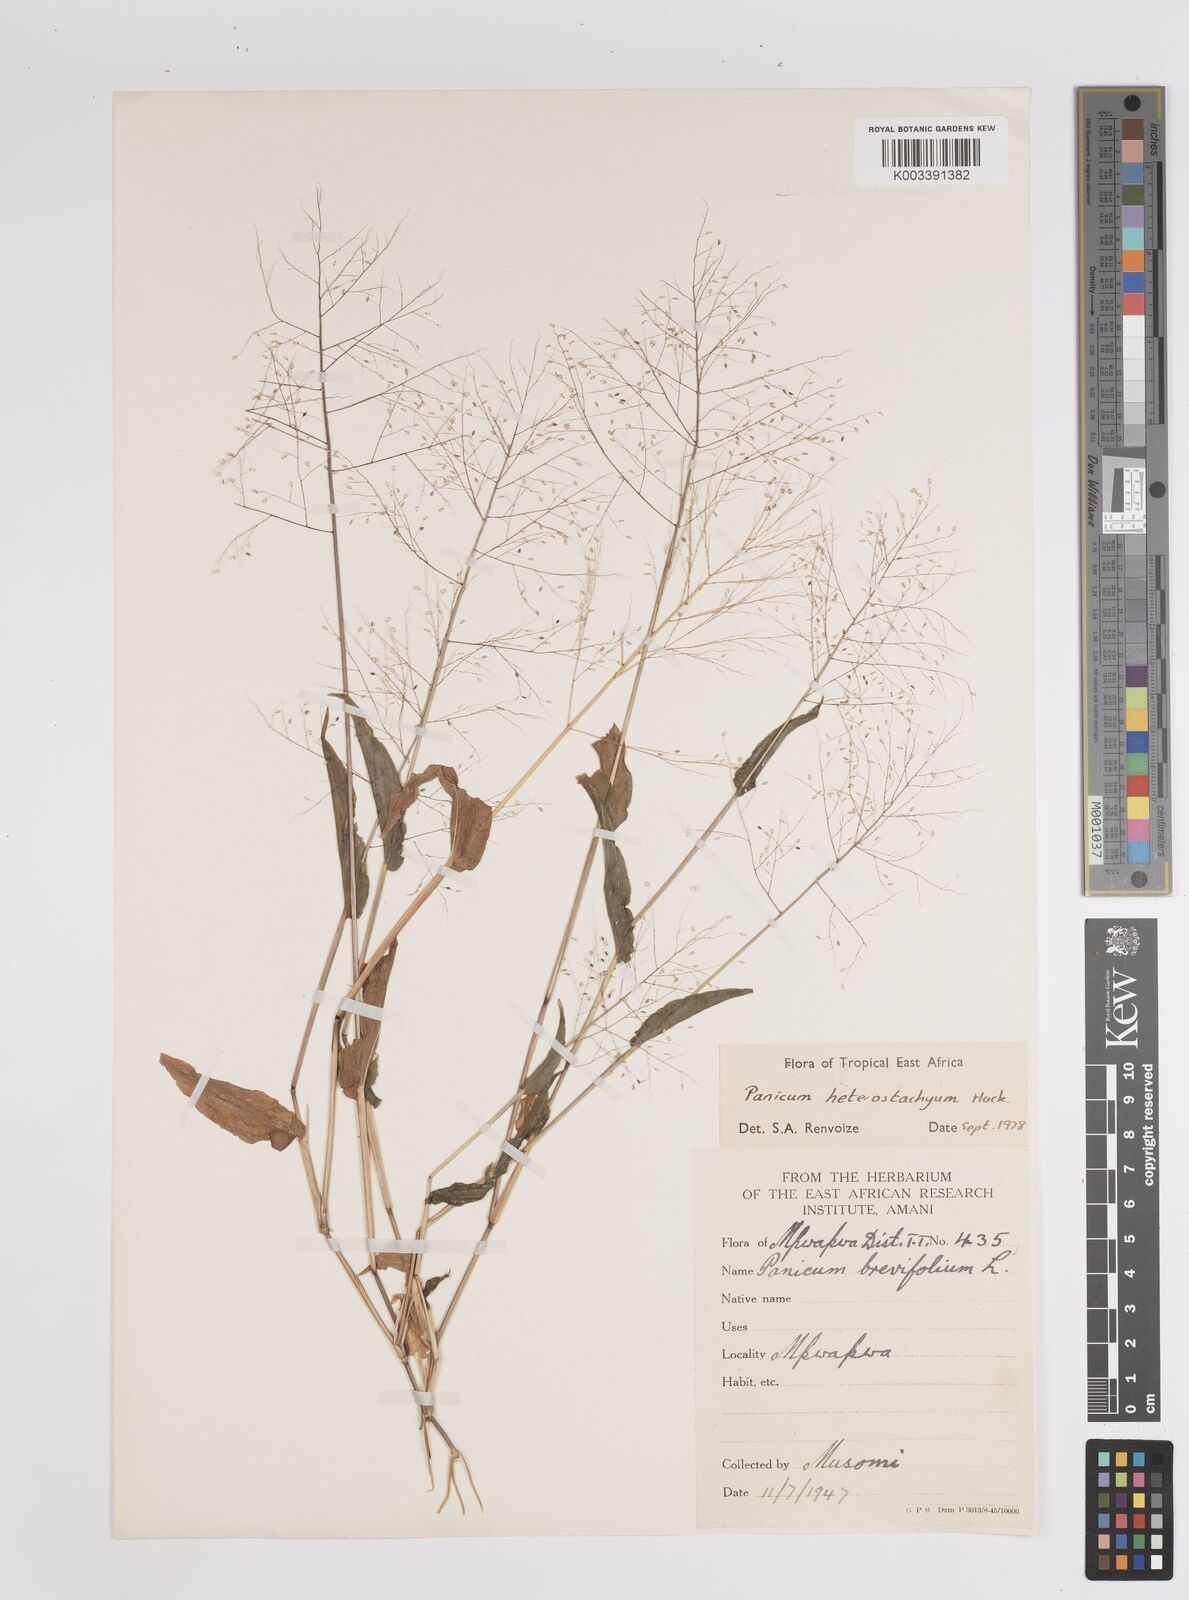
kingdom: Plantae
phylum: Tracheophyta
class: Liliopsida
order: Poales
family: Poaceae
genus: Panicum
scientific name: Panicum hirtum
